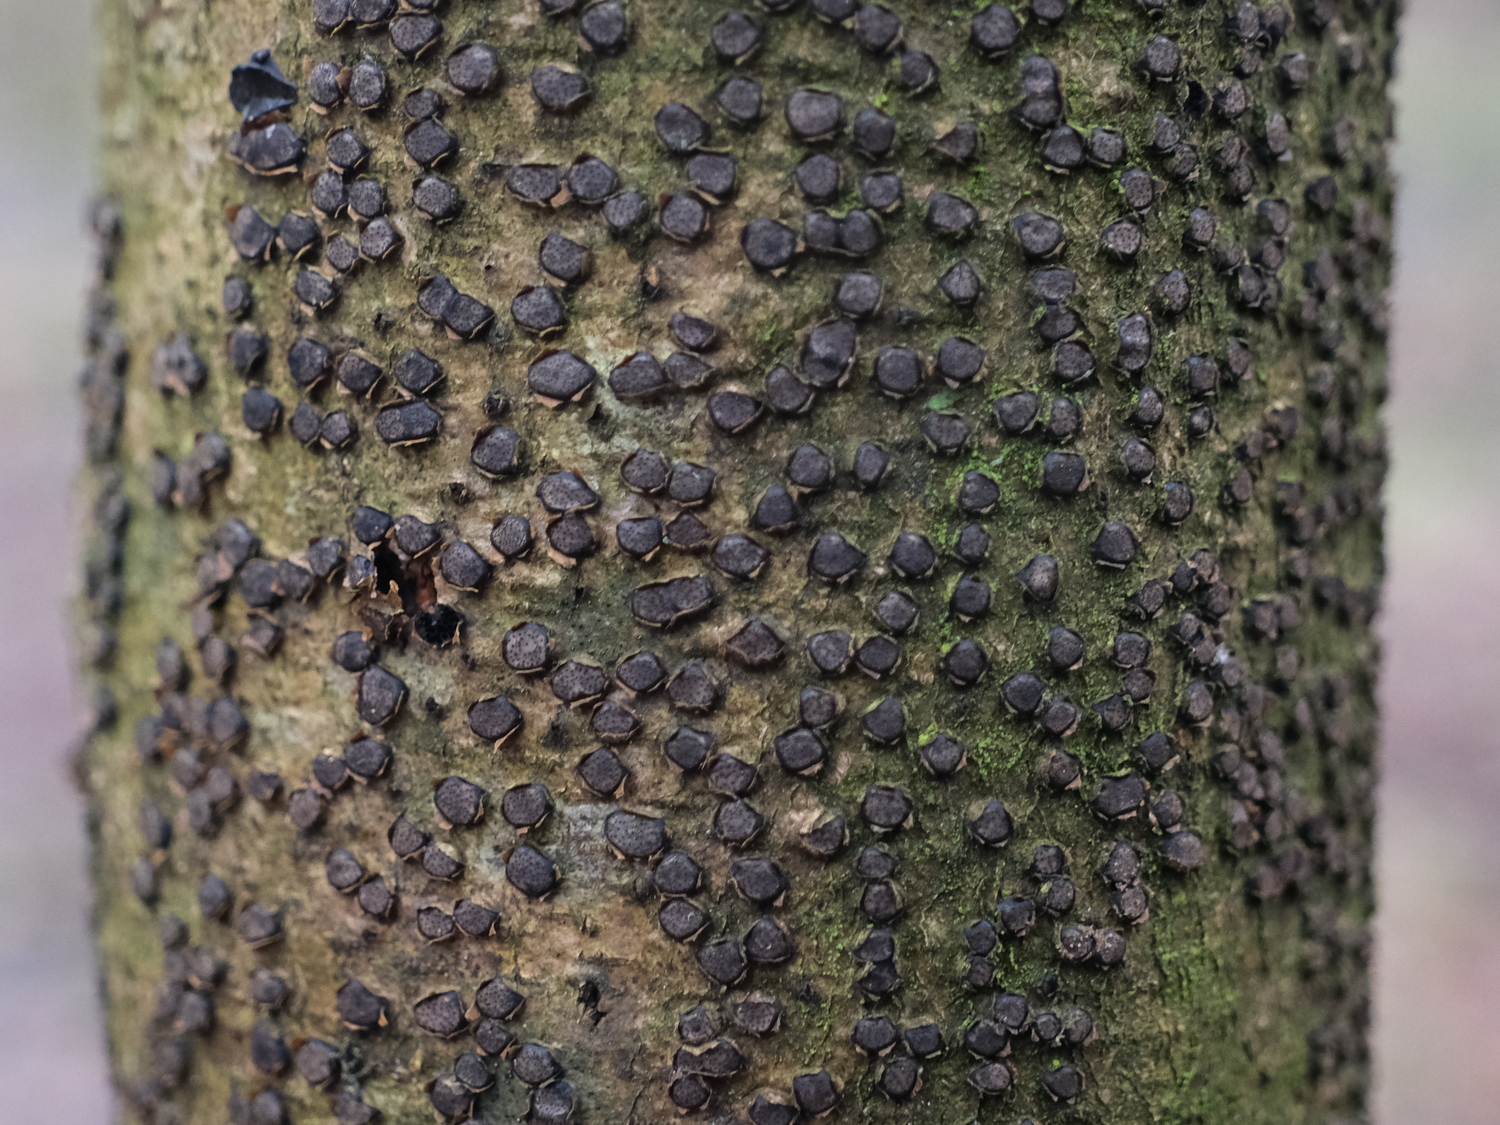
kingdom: Fungi
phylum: Ascomycota
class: Sordariomycetes
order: Xylariales
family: Diatrypaceae
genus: Diatrype
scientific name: Diatrype disciformis
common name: kant-kulskorpe
